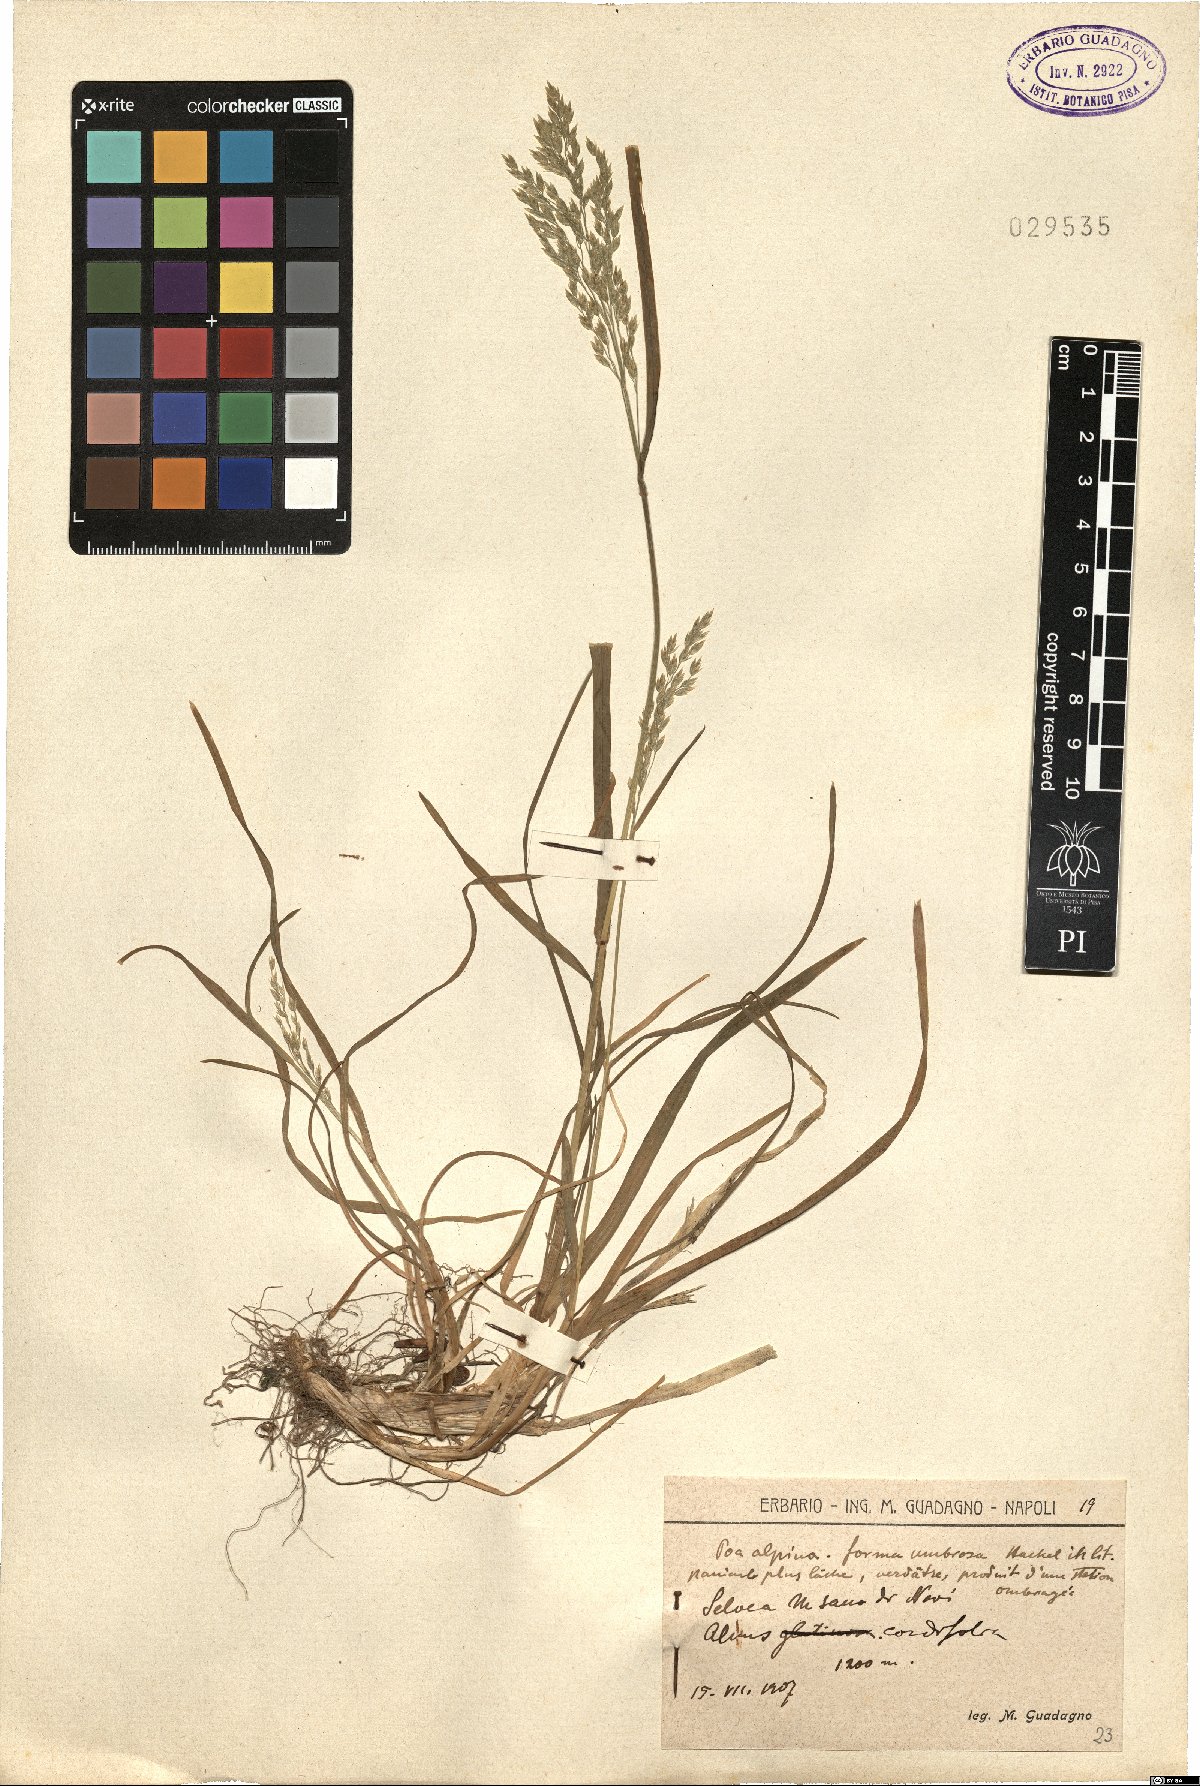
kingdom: Plantae
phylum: Tracheophyta
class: Liliopsida
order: Poales
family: Poaceae
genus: Poa
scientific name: Poa alpina
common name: Alpine bluegrass
